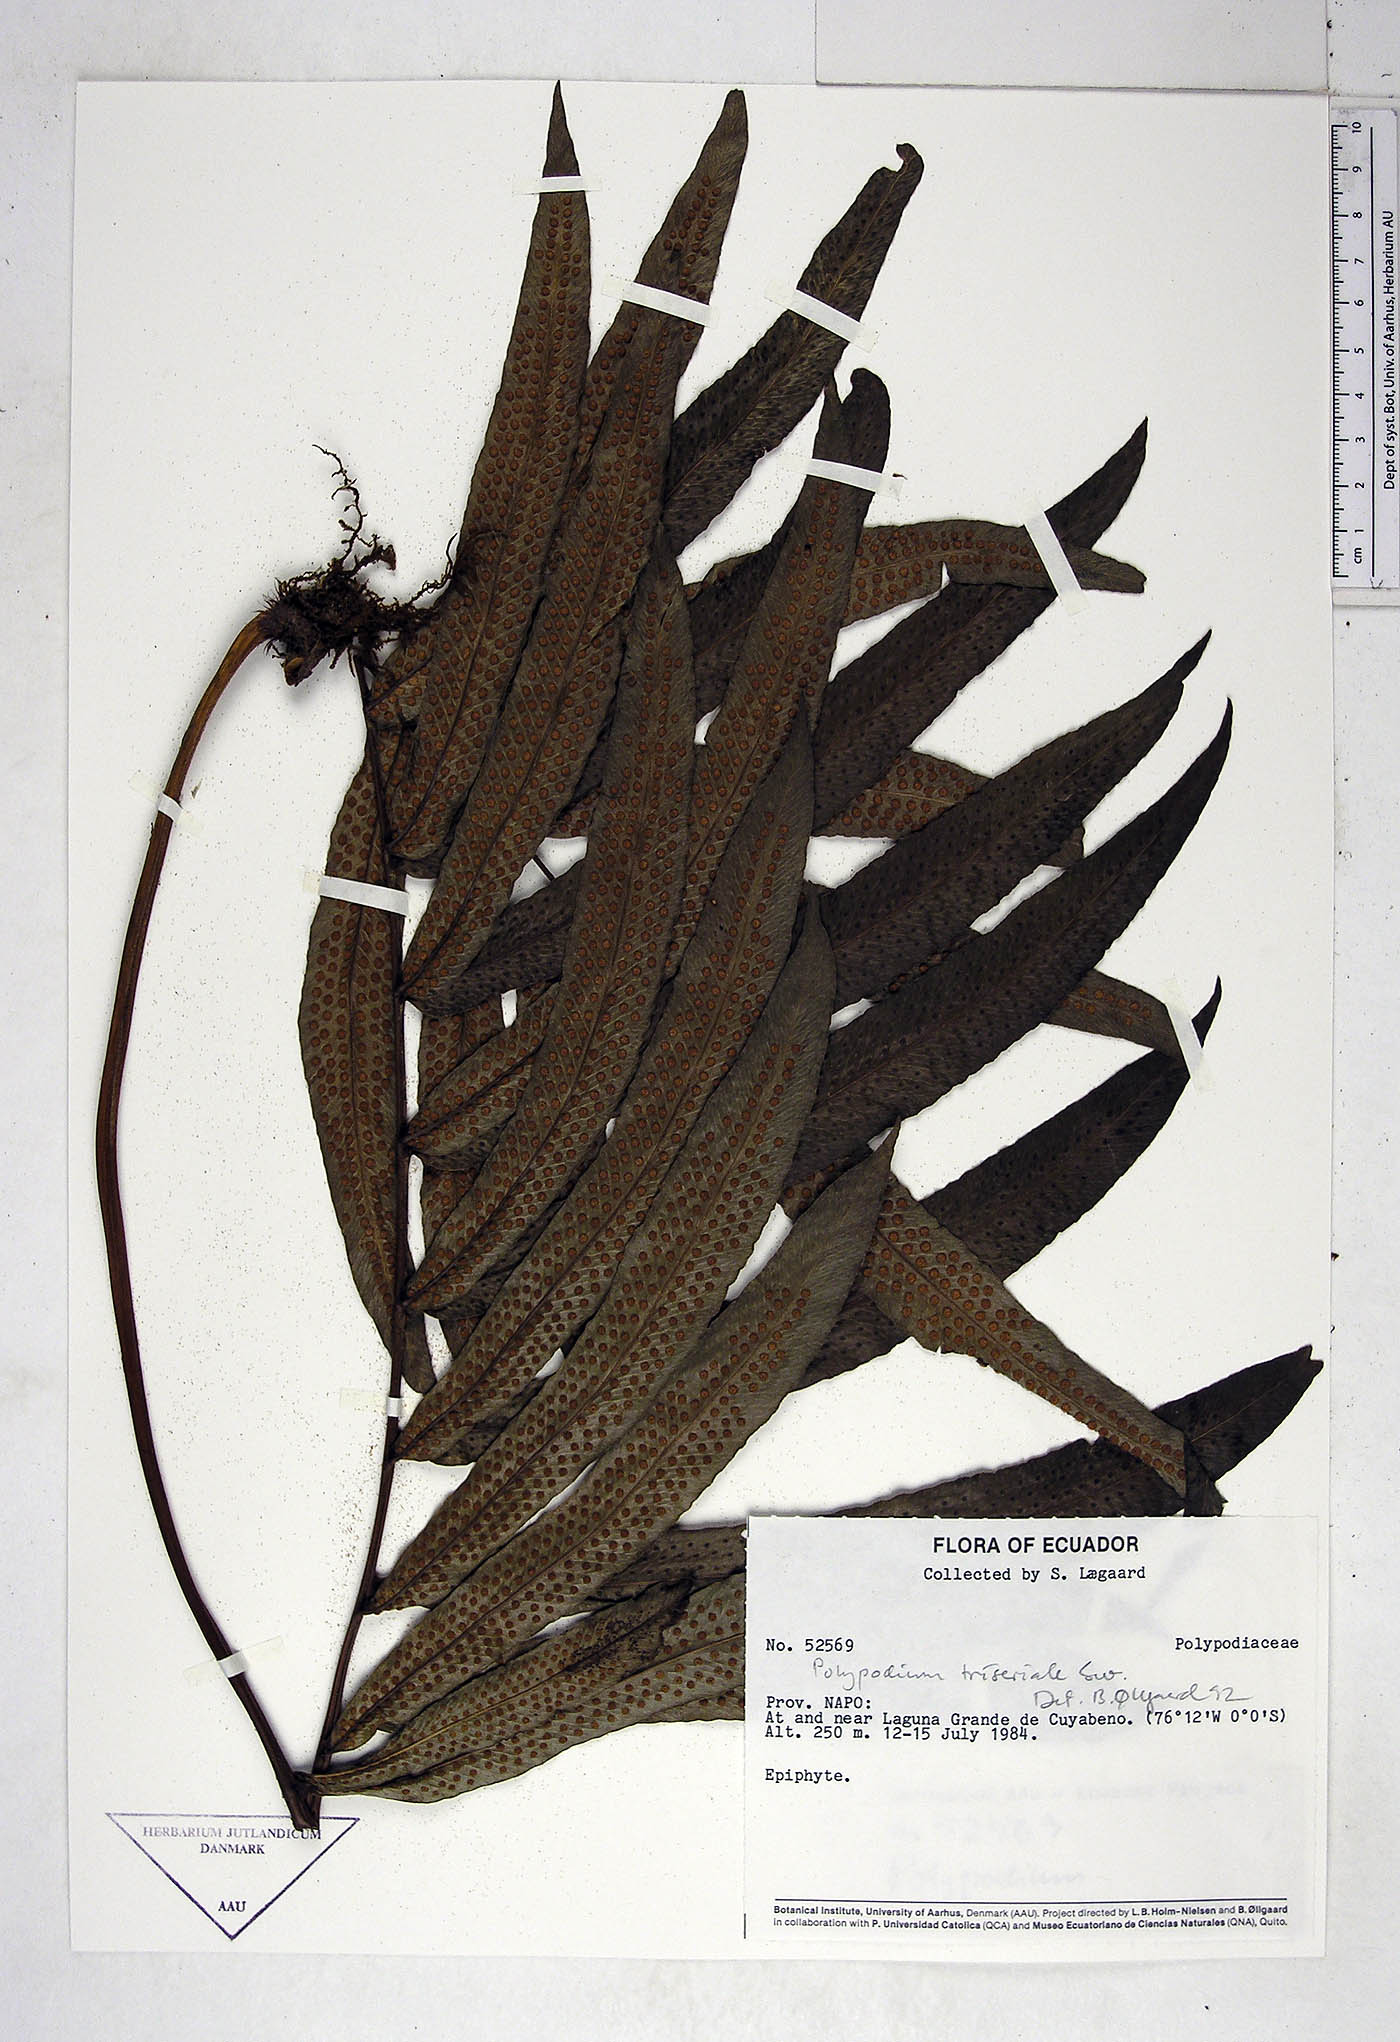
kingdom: Plantae
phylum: Tracheophyta
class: Polypodiopsida
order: Polypodiales
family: Polypodiaceae
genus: Serpocaulon
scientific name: Serpocaulon triseriale
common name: Angle-vein fern
